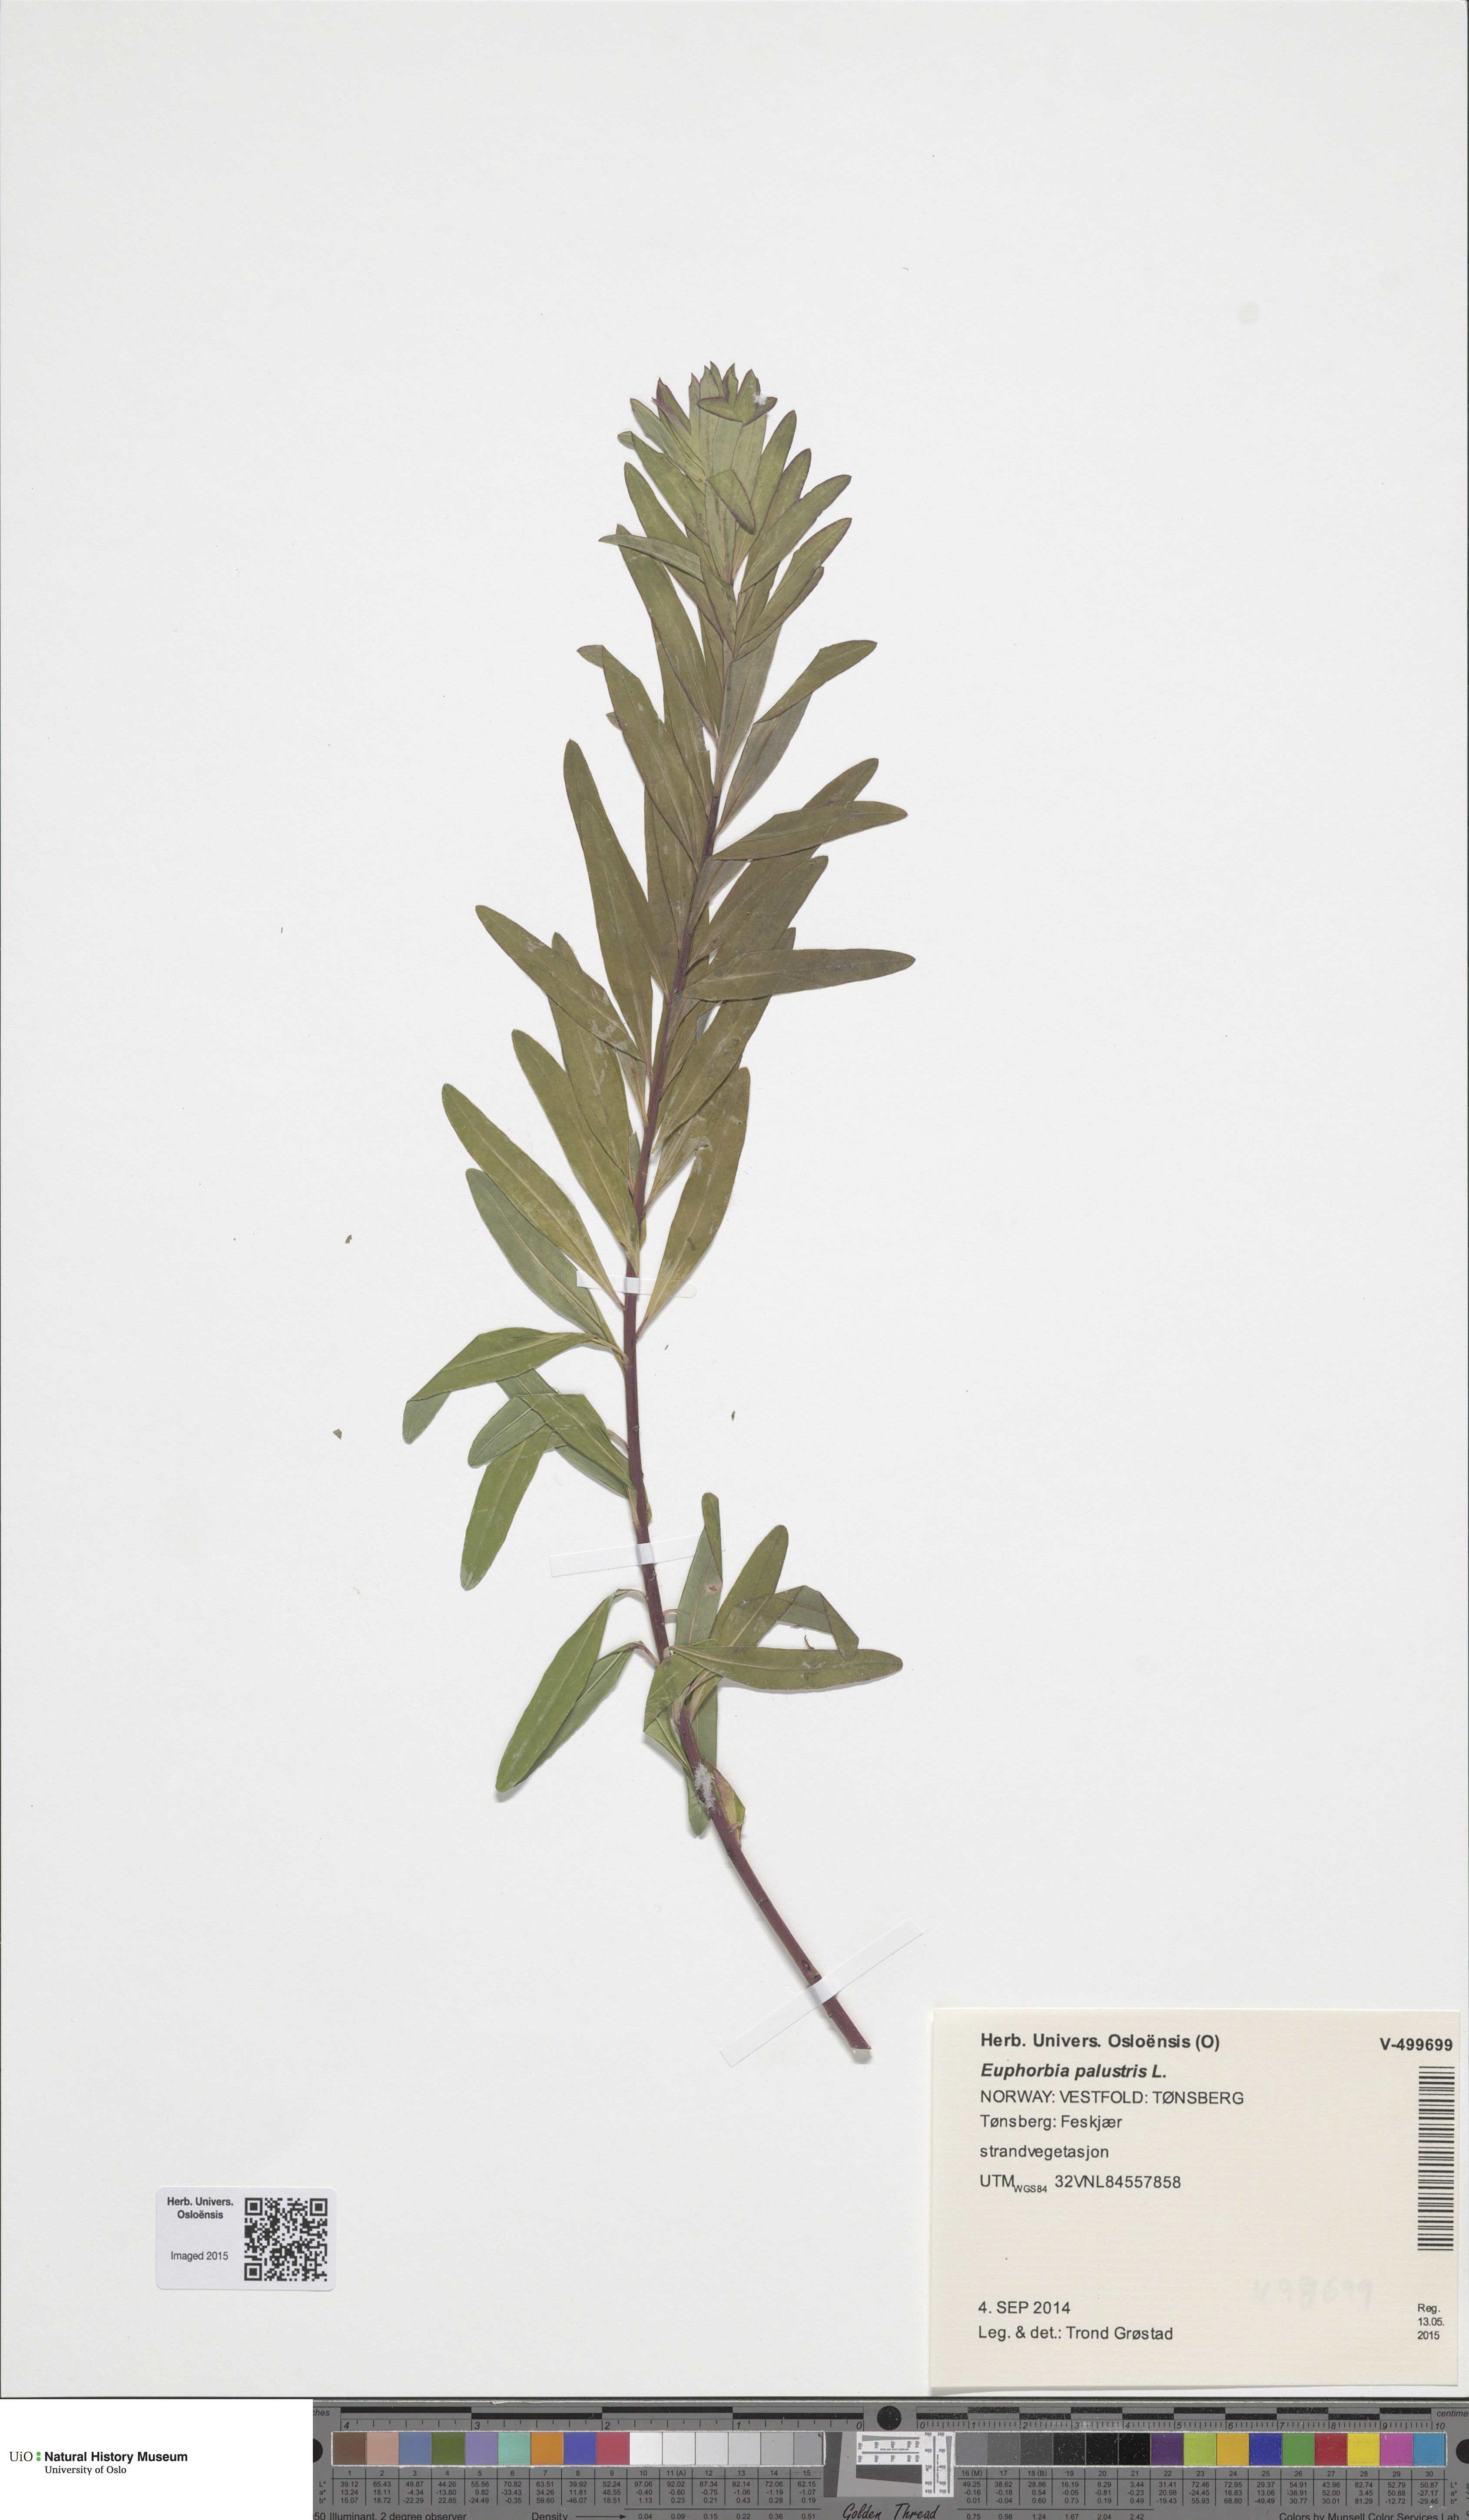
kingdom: Plantae
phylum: Tracheophyta
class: Magnoliopsida
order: Malpighiales
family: Euphorbiaceae
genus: Euphorbia
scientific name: Euphorbia palustris
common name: Marsh spurge
